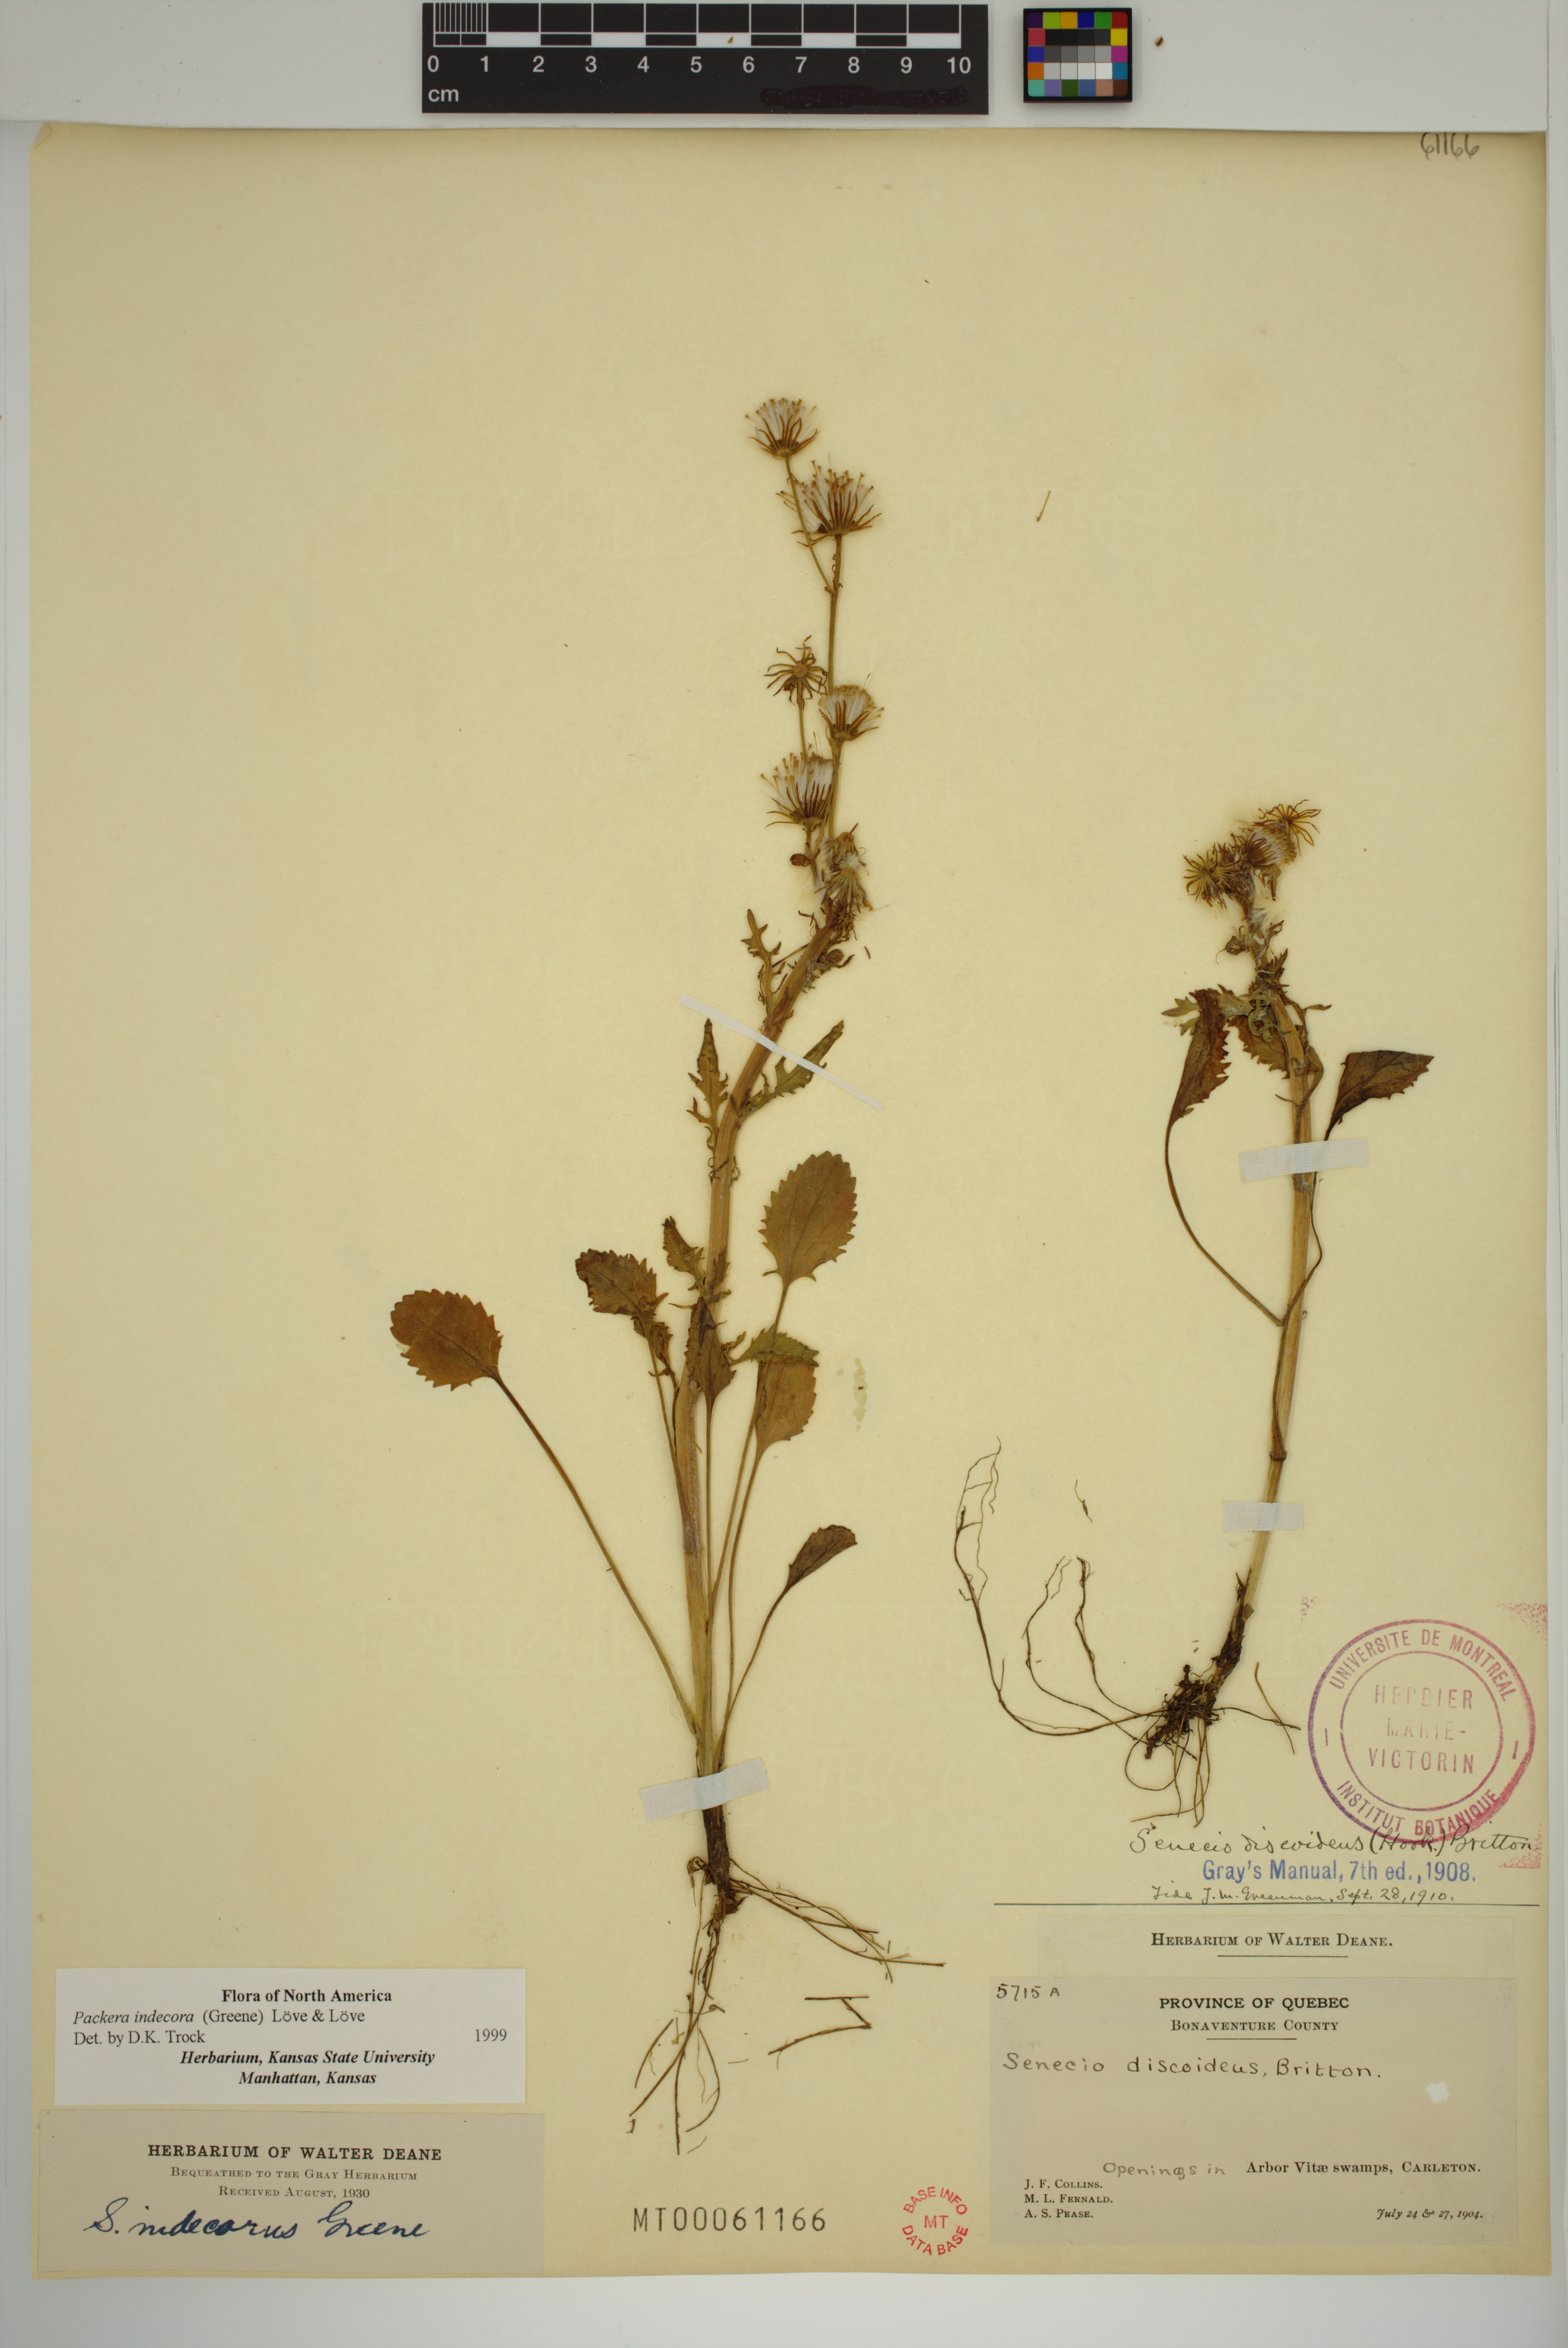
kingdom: Plantae
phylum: Tracheophyta
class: Magnoliopsida
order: Asterales
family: Asteraceae
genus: Packera
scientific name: Packera indecora
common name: Elegant groundsel
